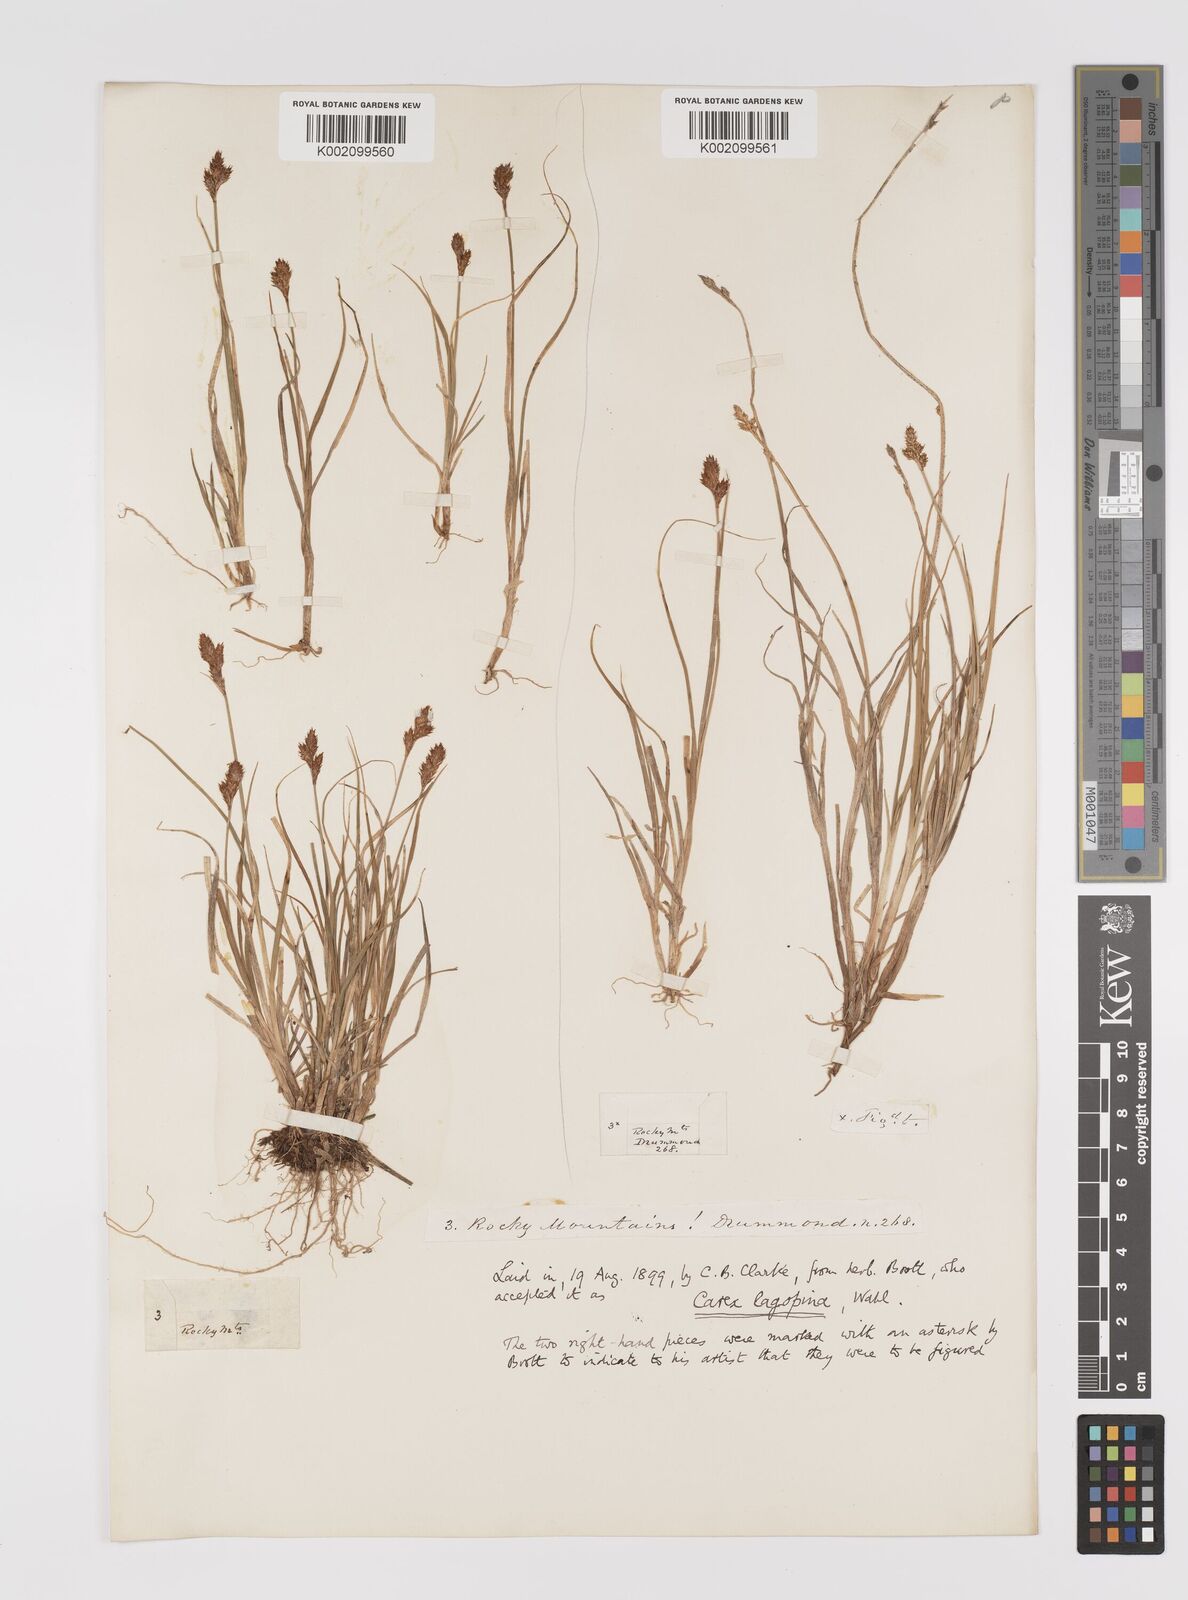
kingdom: Plantae
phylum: Tracheophyta
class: Liliopsida
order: Poales
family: Cyperaceae
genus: Carex
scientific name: Carex lachenalii
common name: Hare's-foot sedge
